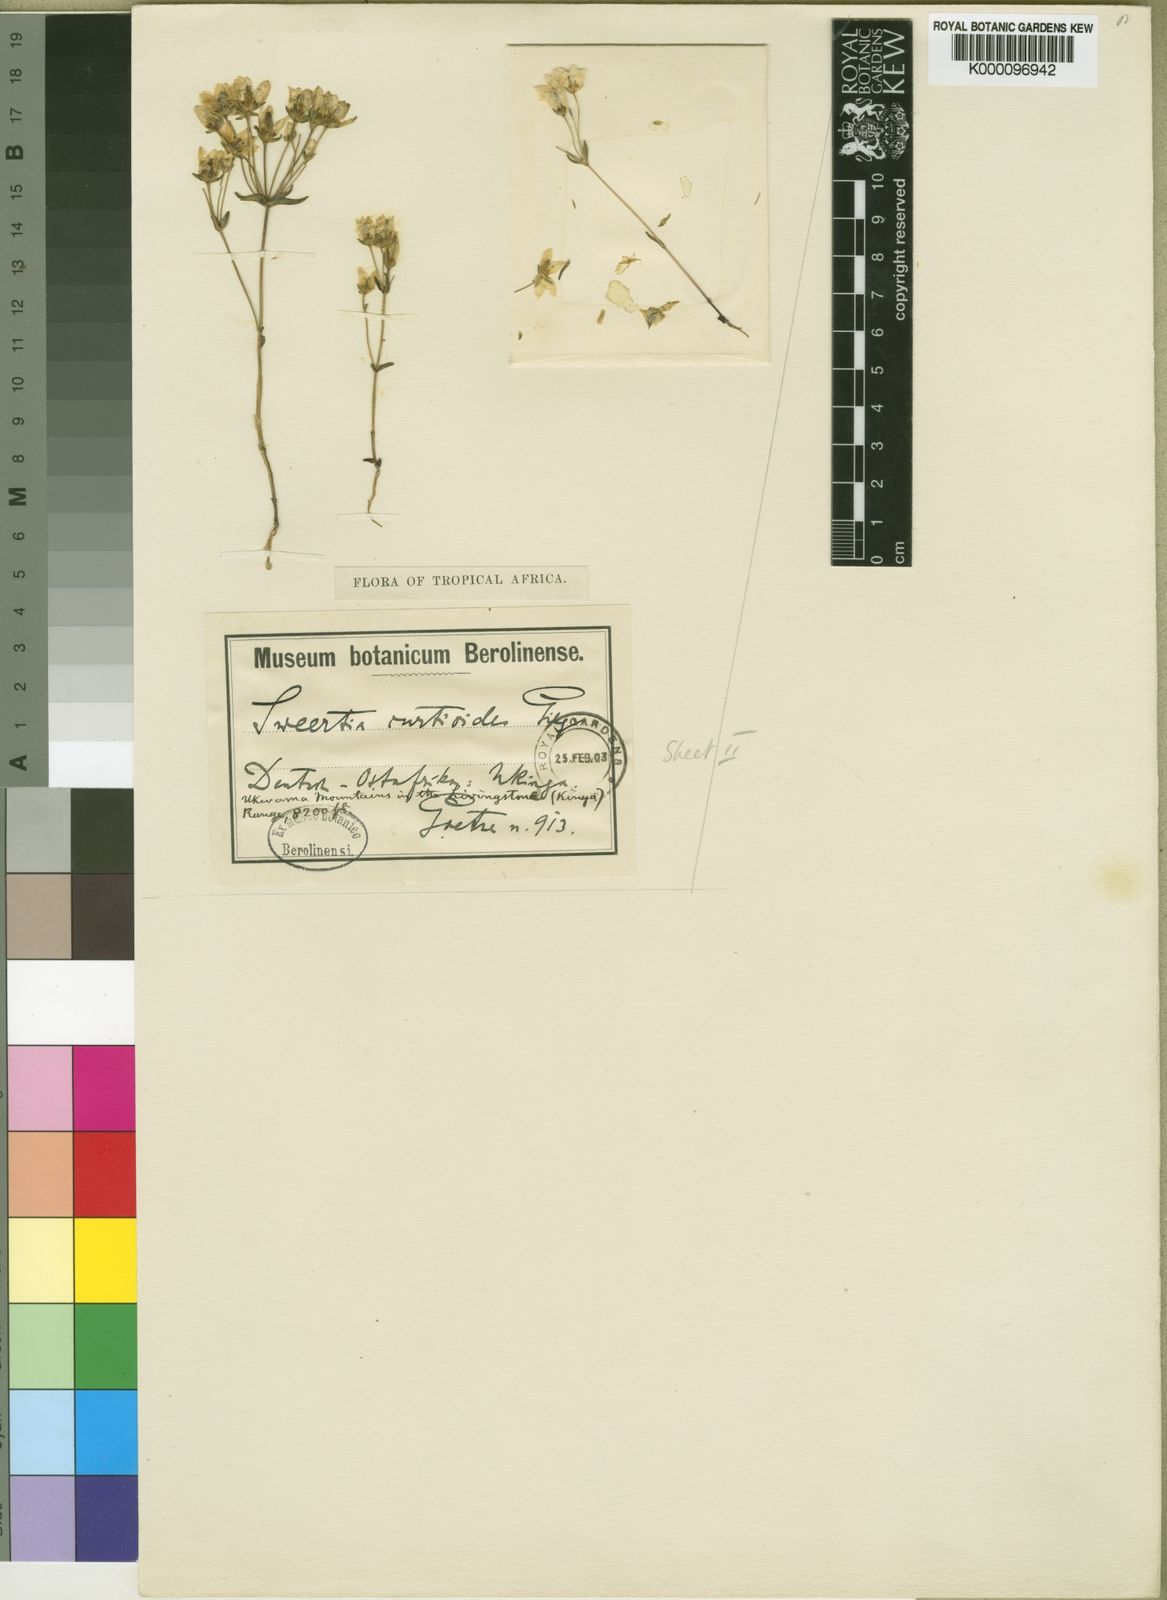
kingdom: Plantae
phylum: Tracheophyta
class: Magnoliopsida
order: Gentianales
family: Gentianaceae
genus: Swertia
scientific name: Swertia usambarensis
